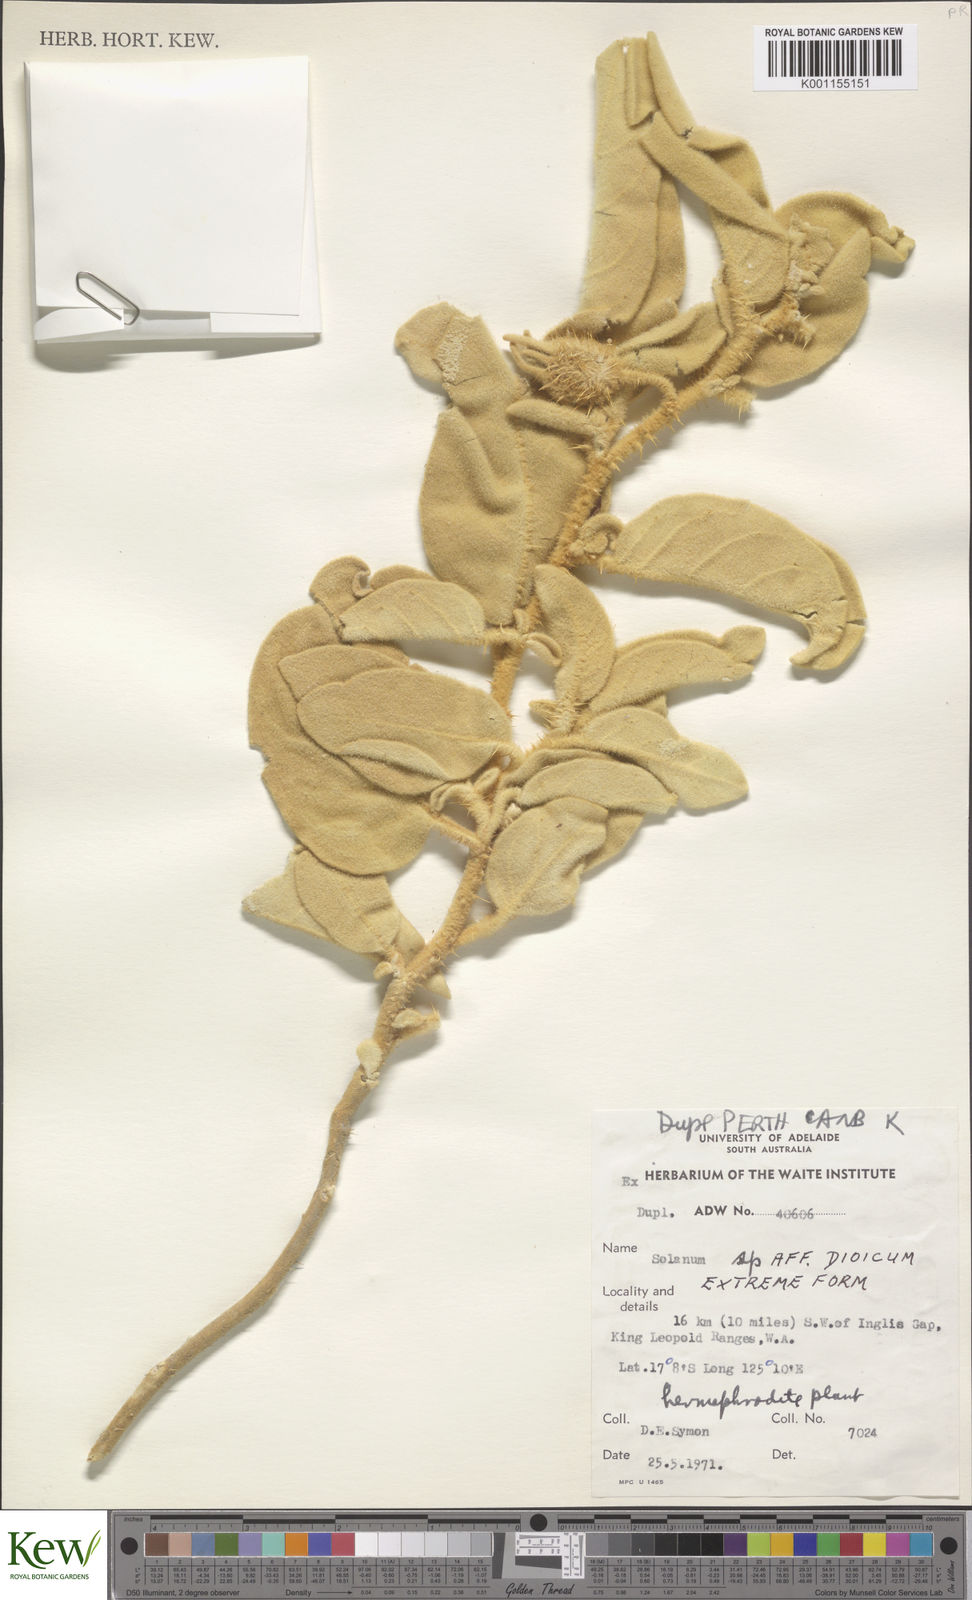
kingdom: Plantae
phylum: Tracheophyta
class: Magnoliopsida
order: Solanales
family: Solanaceae
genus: Solanum
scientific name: Solanum dioicum
